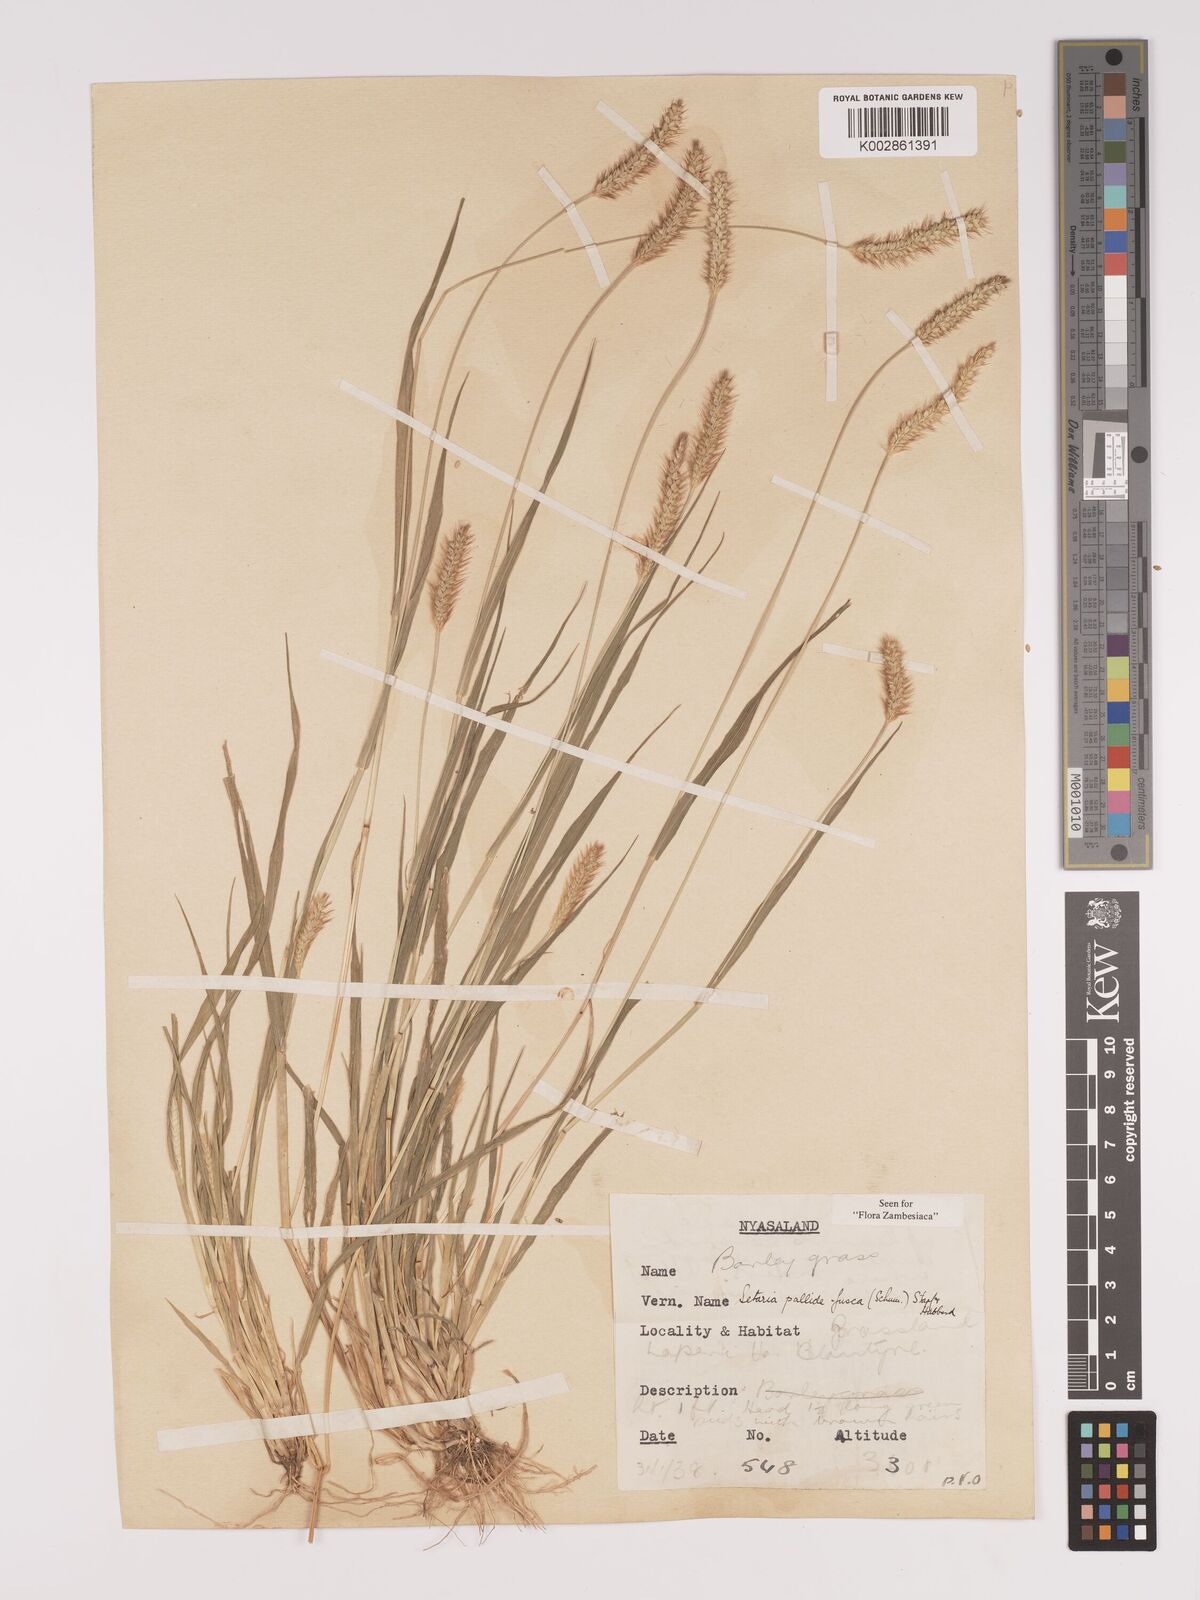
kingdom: Plantae
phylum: Tracheophyta
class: Liliopsida
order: Poales
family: Poaceae
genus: Setaria
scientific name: Setaria pumila
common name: Yellow bristle-grass
